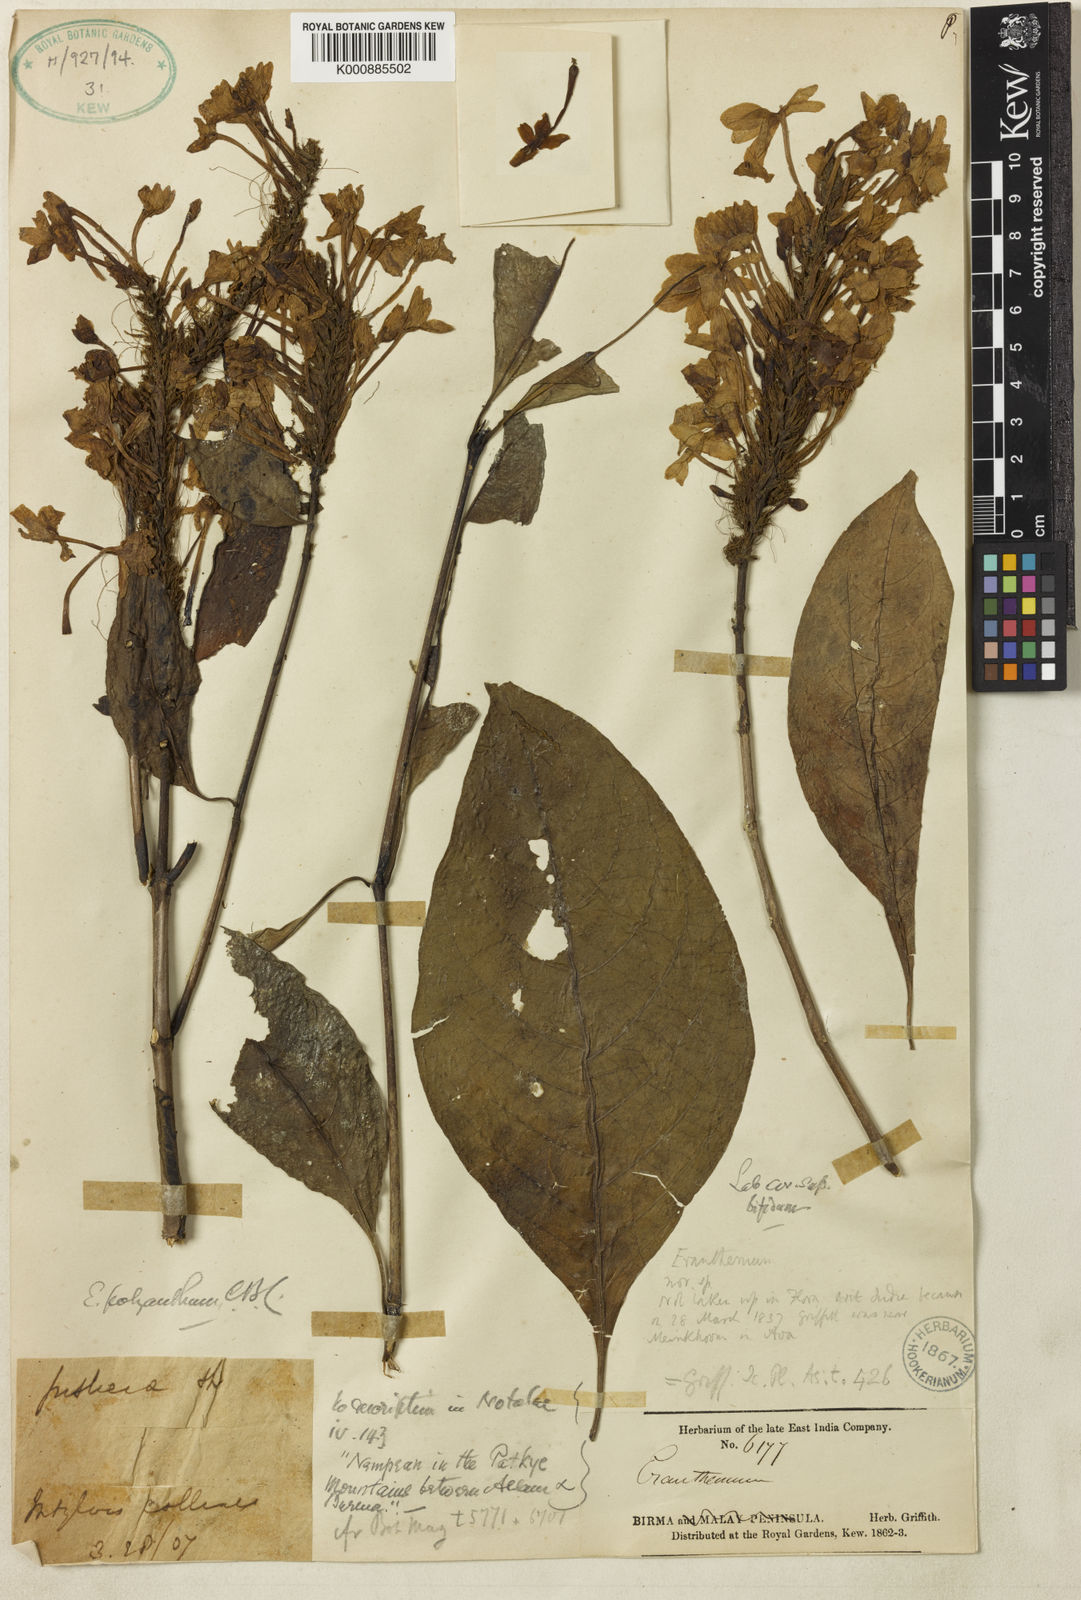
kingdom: Plantae
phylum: Tracheophyta
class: Magnoliopsida
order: Lamiales
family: Acanthaceae
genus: Pseuderanthemum
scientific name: Pseuderanthemum polyanthum
